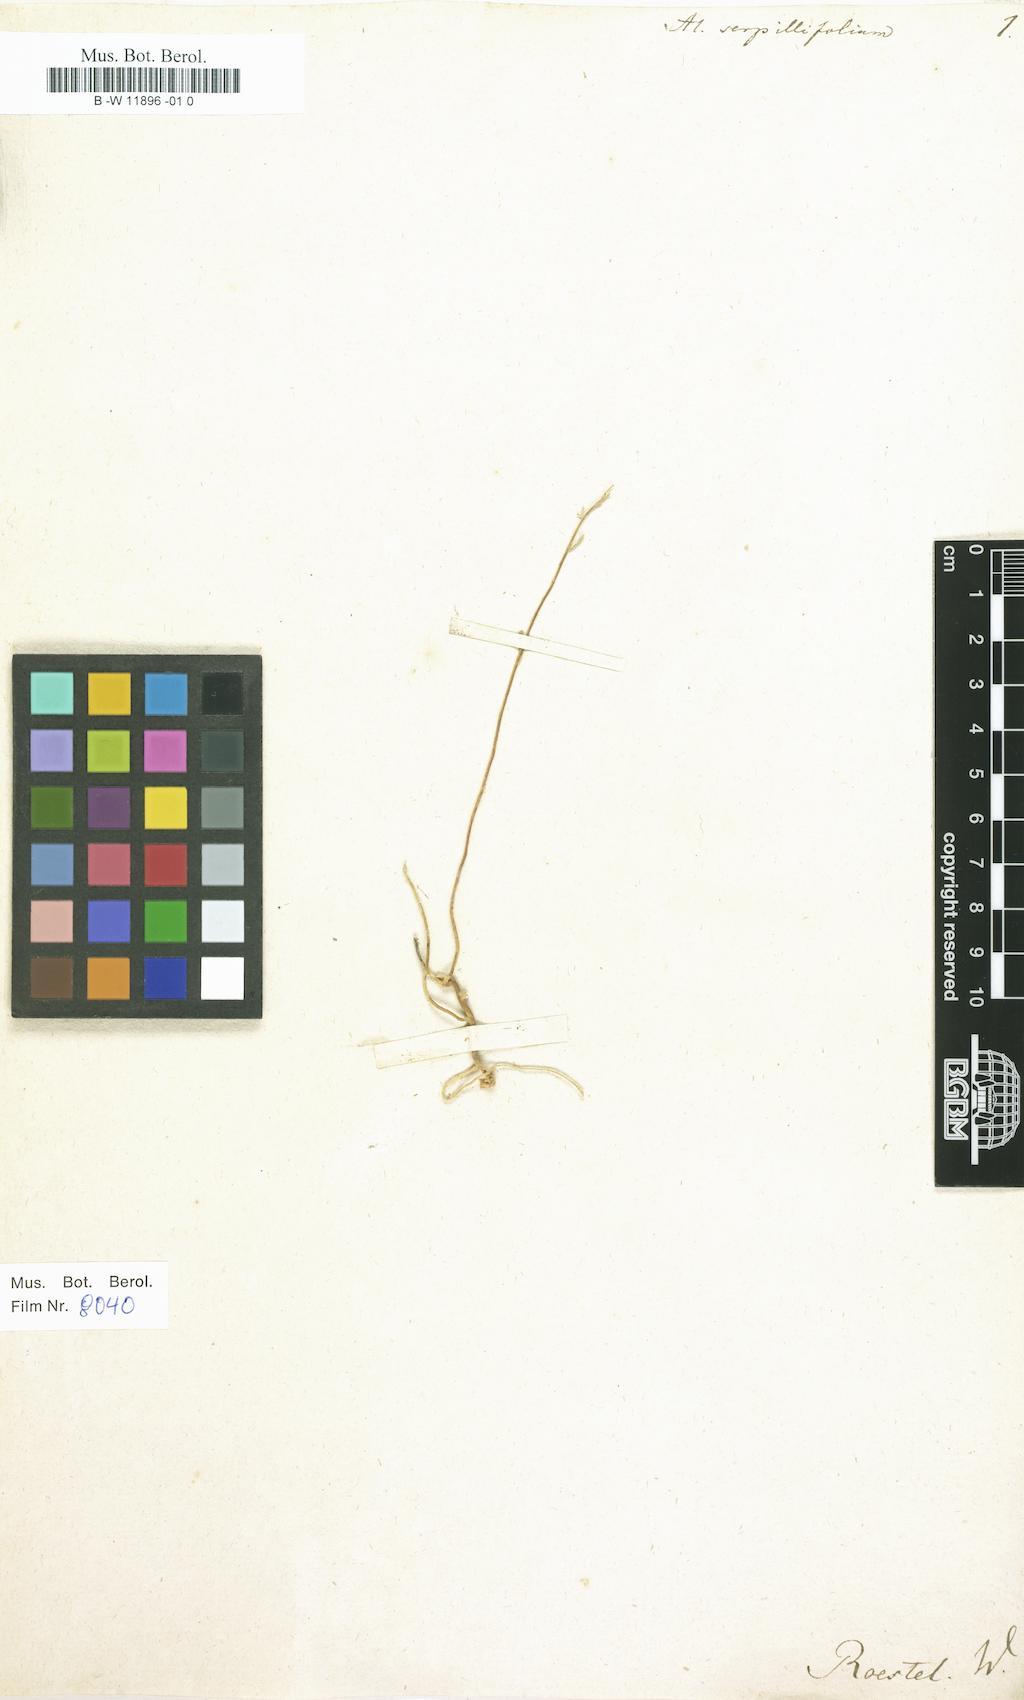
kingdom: Plantae
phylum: Tracheophyta
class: Magnoliopsida
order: Brassicales
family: Brassicaceae
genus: Odontarrhena
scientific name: Odontarrhena serpyllifolia
